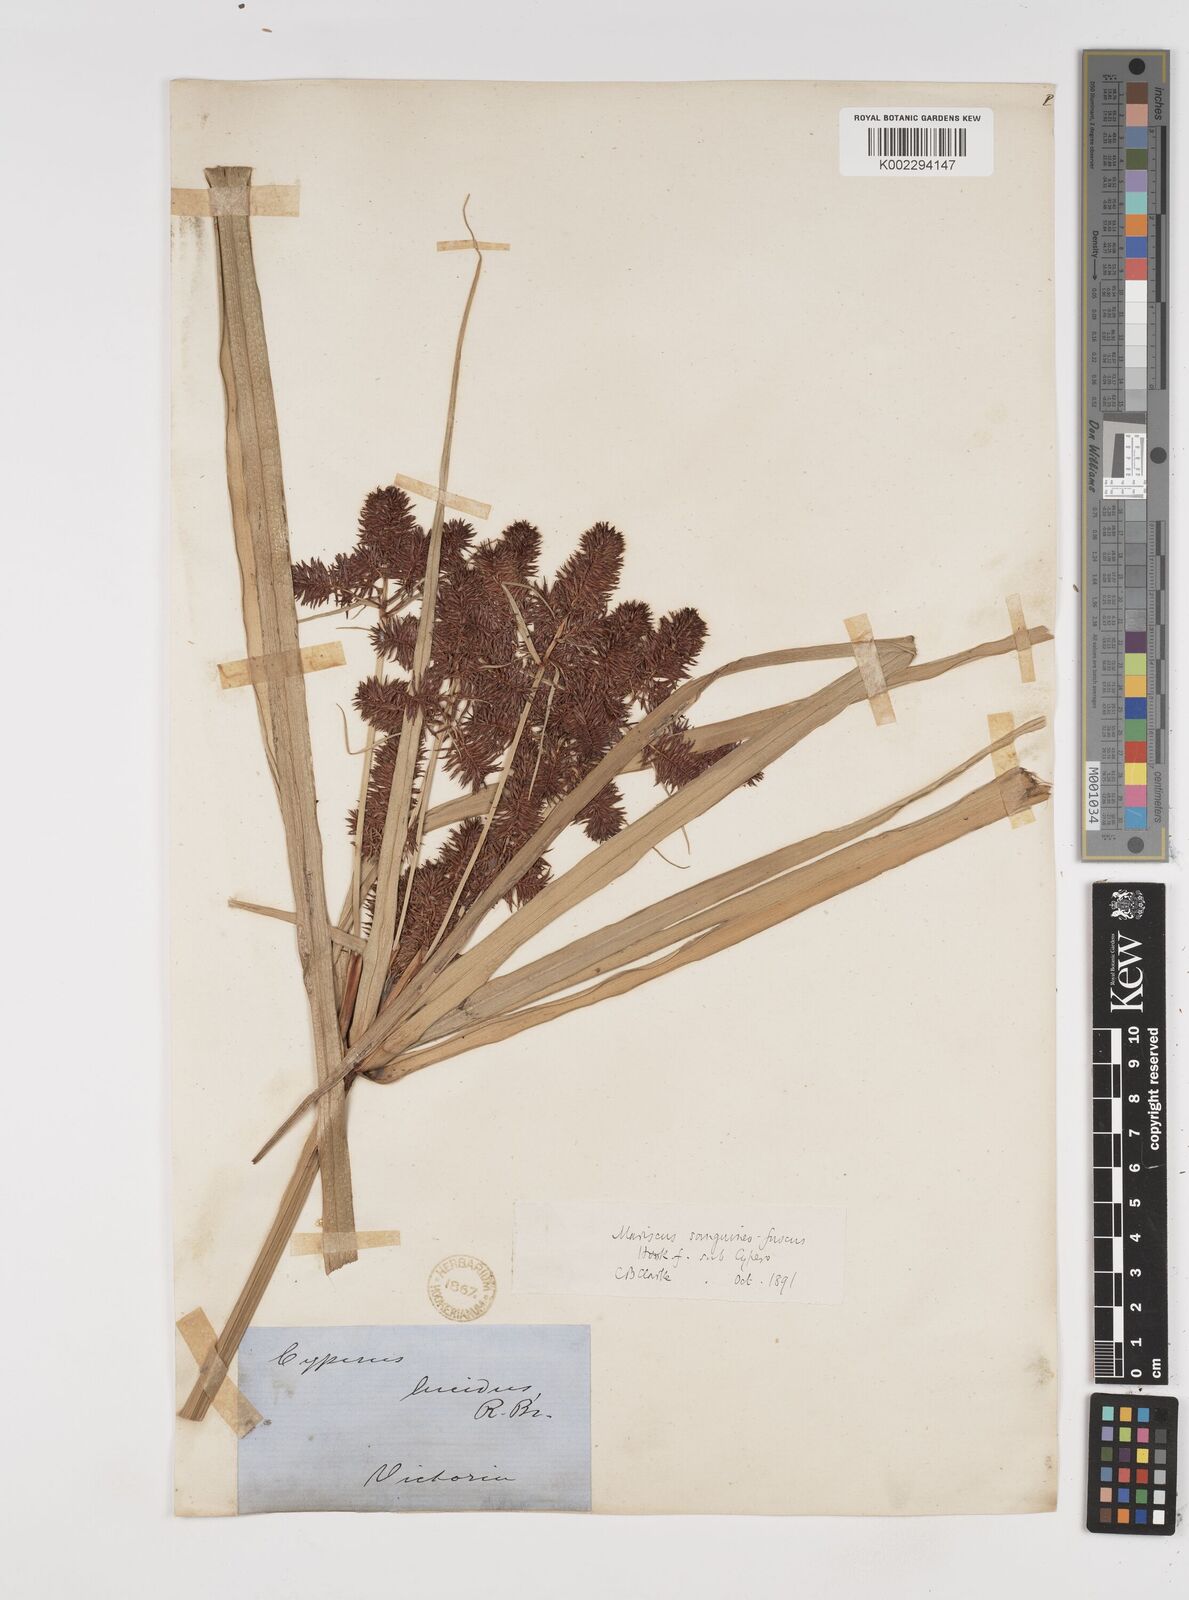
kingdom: Plantae
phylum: Tracheophyta
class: Liliopsida
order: Poales
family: Cyperaceae
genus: Cyperus
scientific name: Cyperus lucidus
